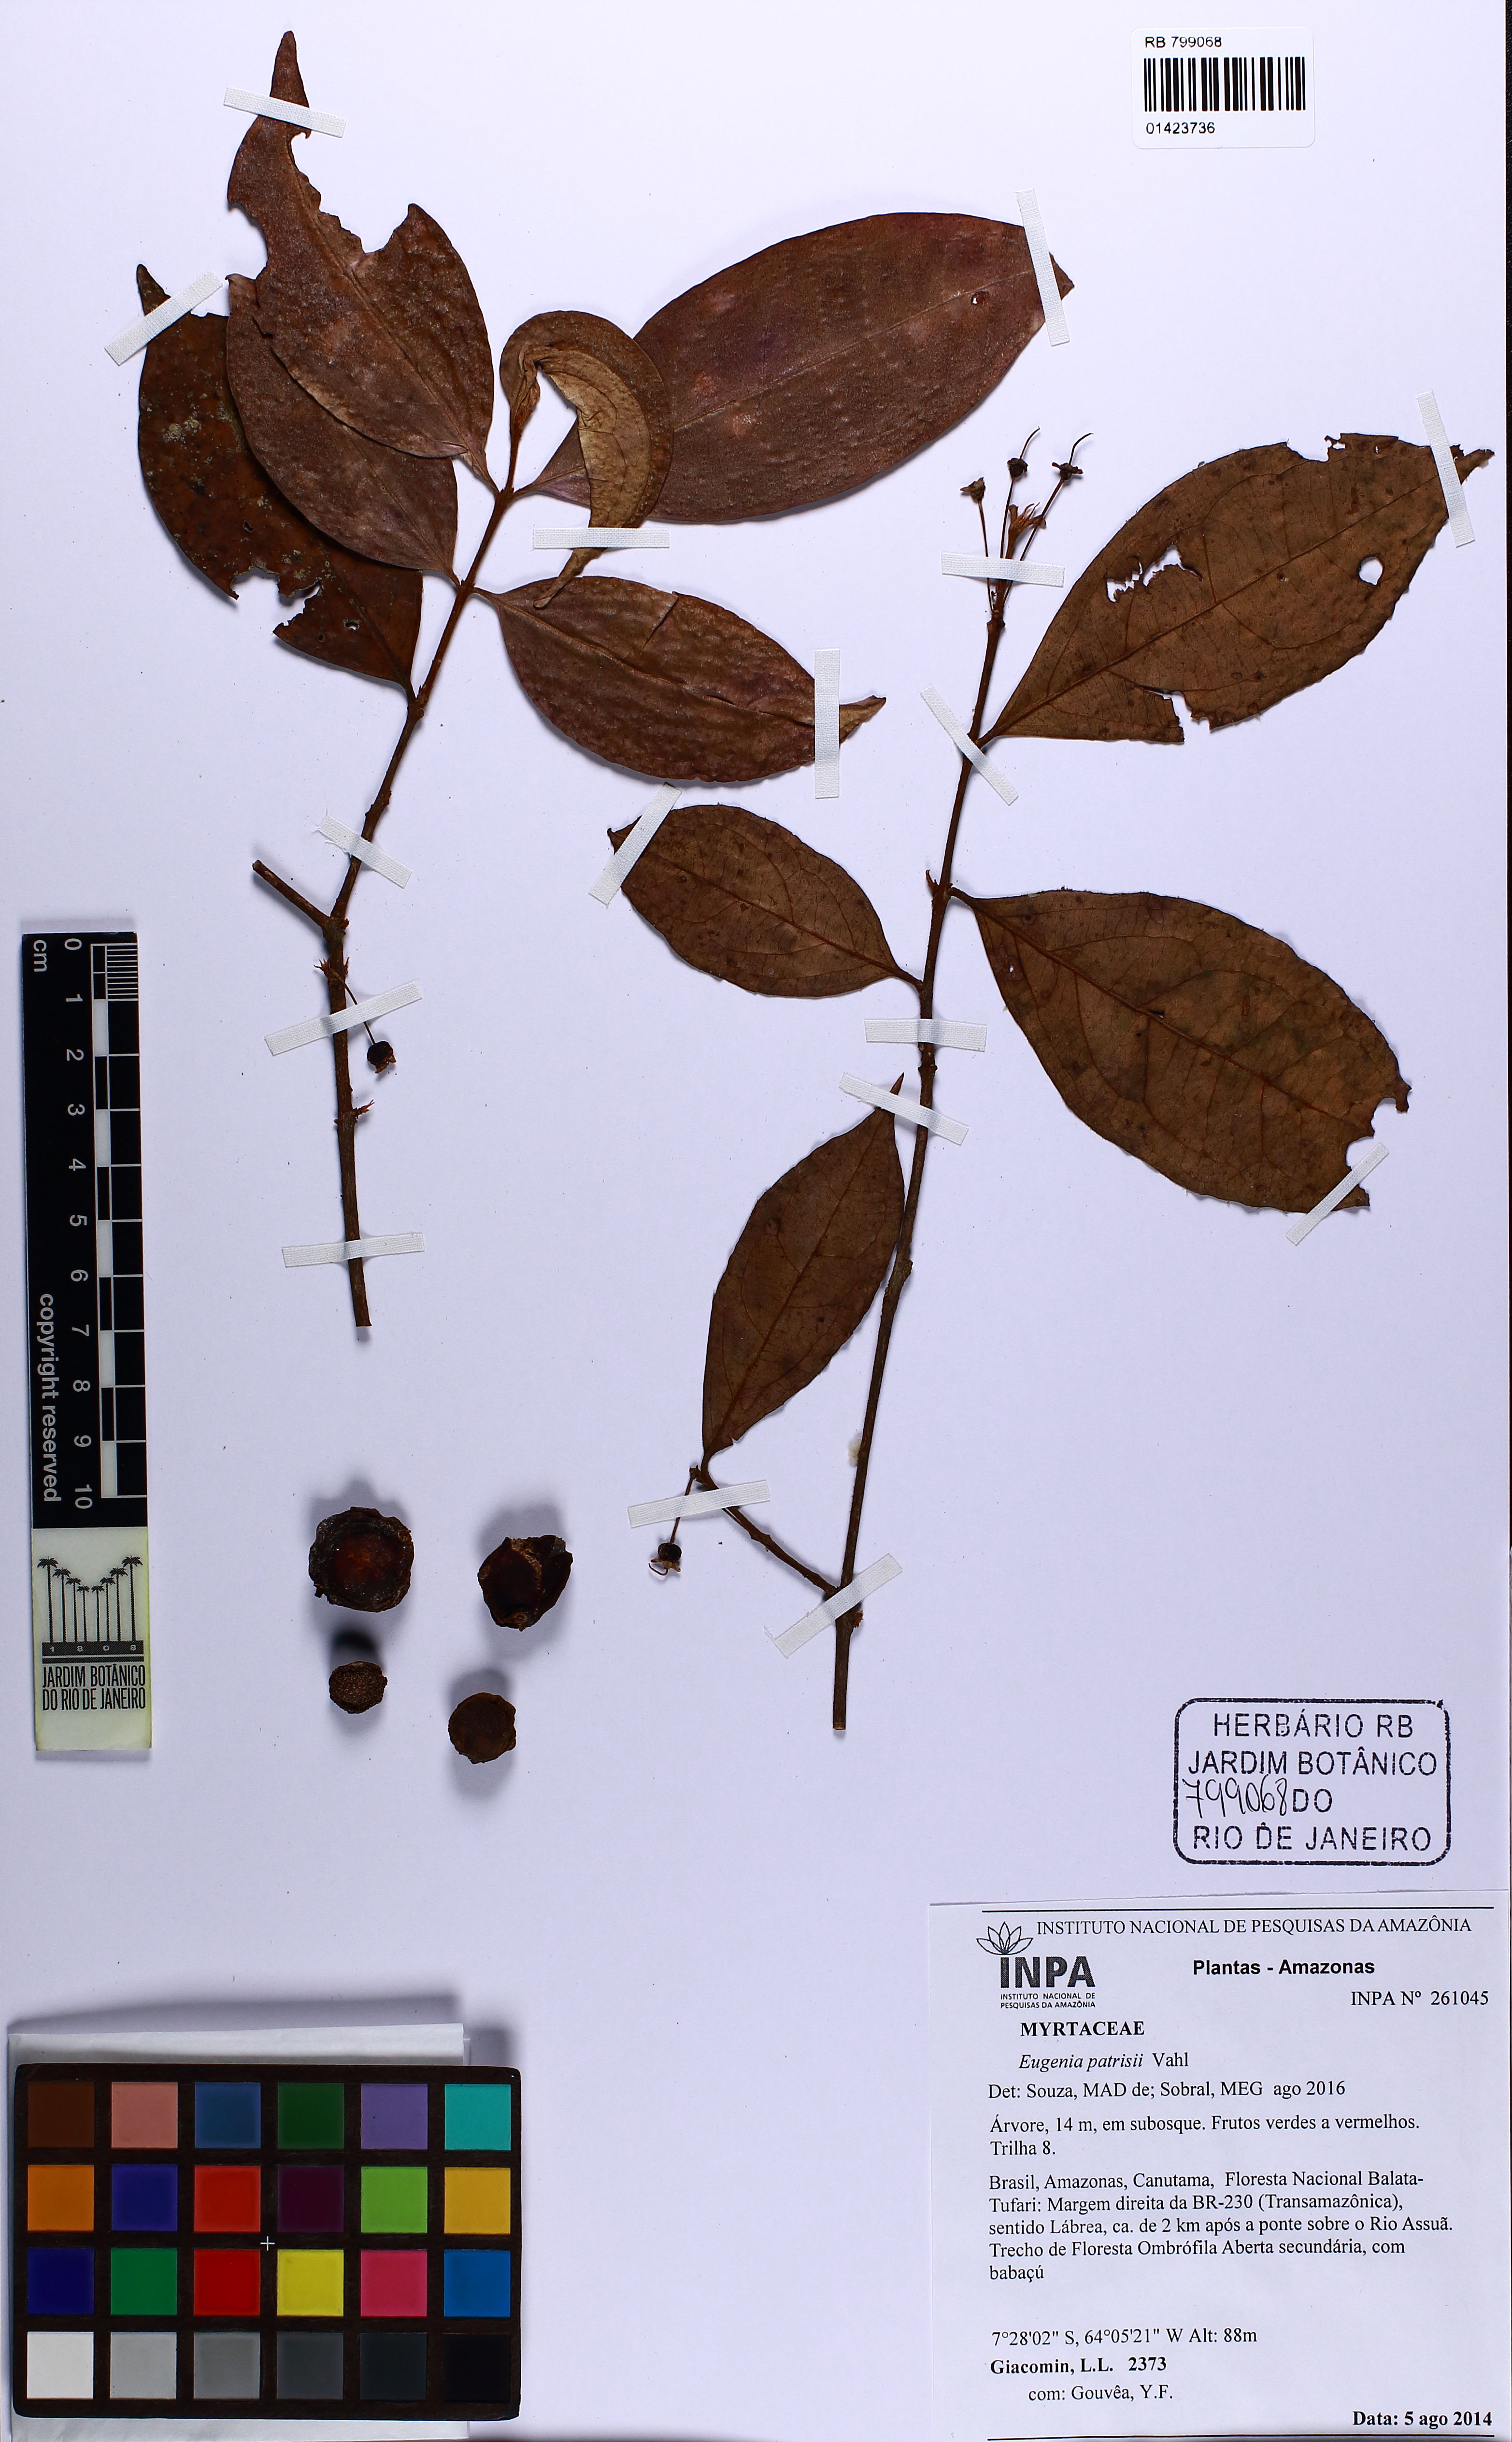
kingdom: Plantae
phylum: Tracheophyta
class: Magnoliopsida
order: Myrtales
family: Myrtaceae
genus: Eugenia
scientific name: Eugenia patrisii
